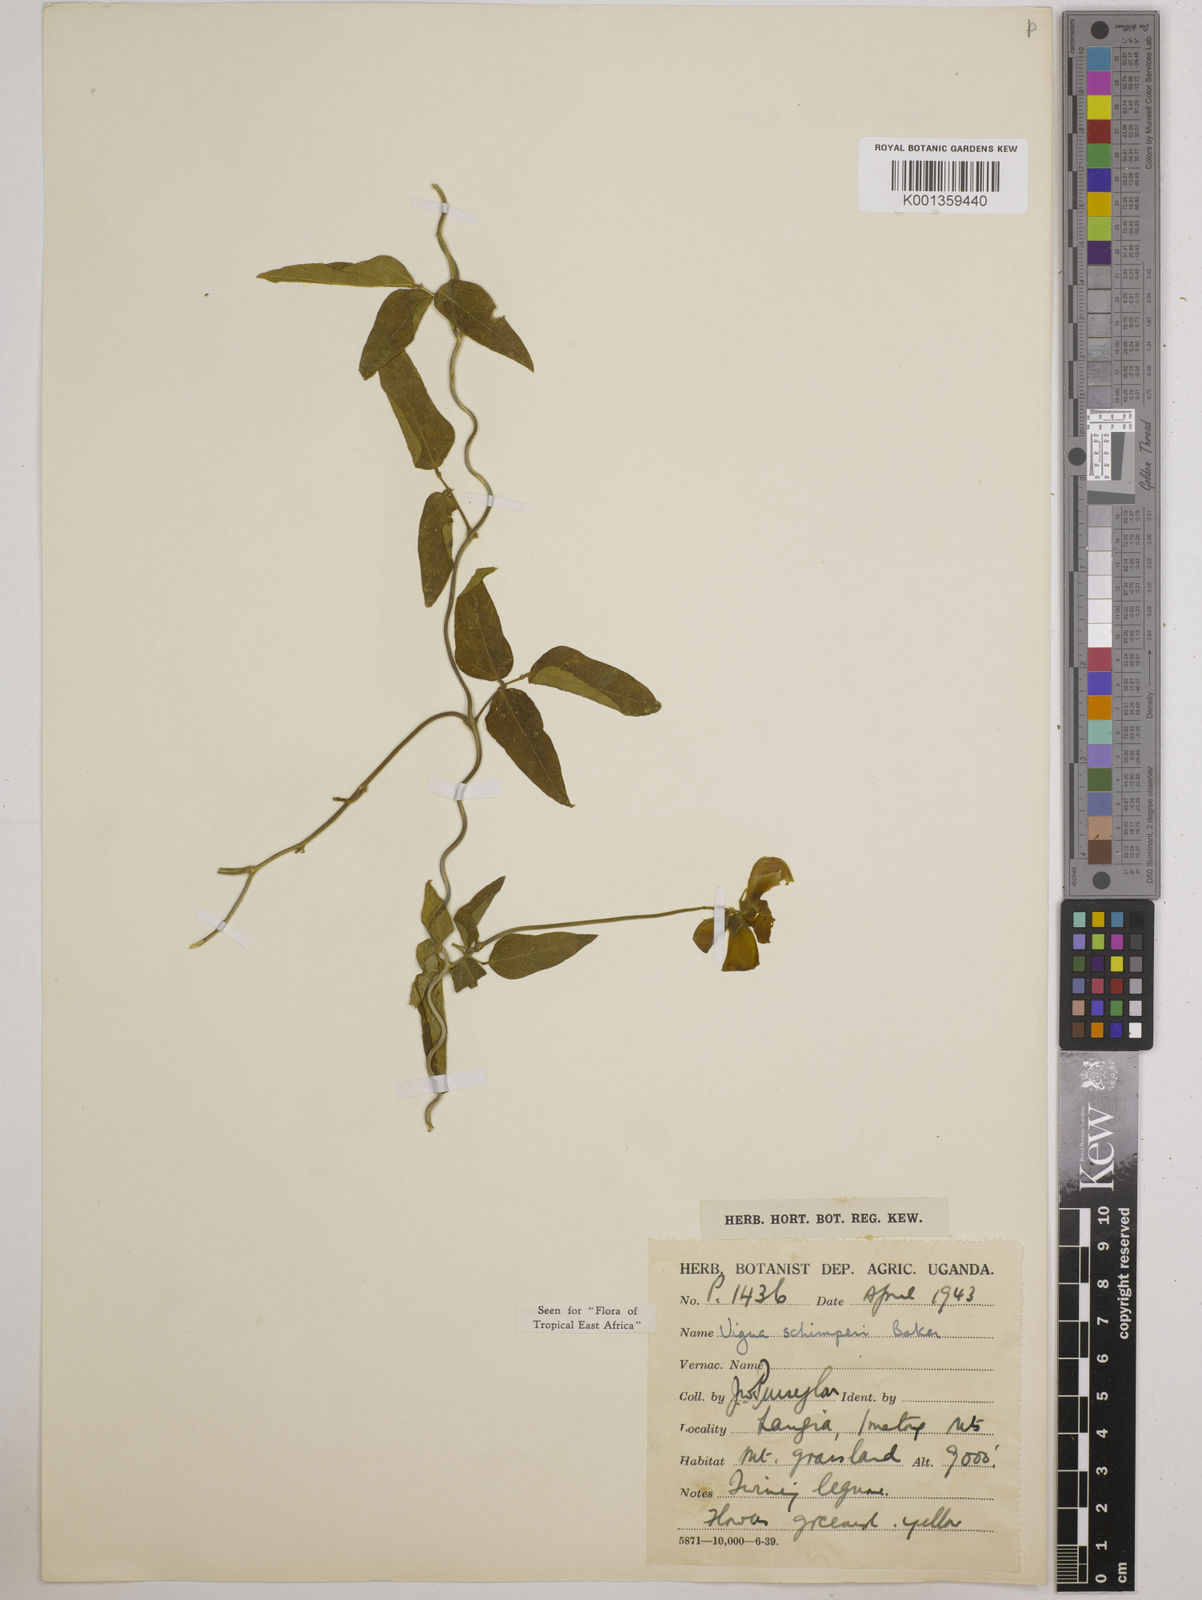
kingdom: Plantae
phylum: Tracheophyta
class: Magnoliopsida
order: Fabales
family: Fabaceae
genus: Vigna
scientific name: Vigna schimperi
